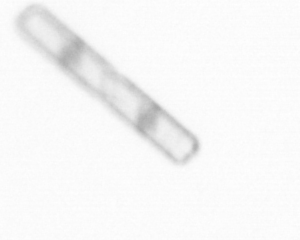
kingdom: Chromista
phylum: Ochrophyta
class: Bacillariophyceae
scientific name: Bacillariophyceae
